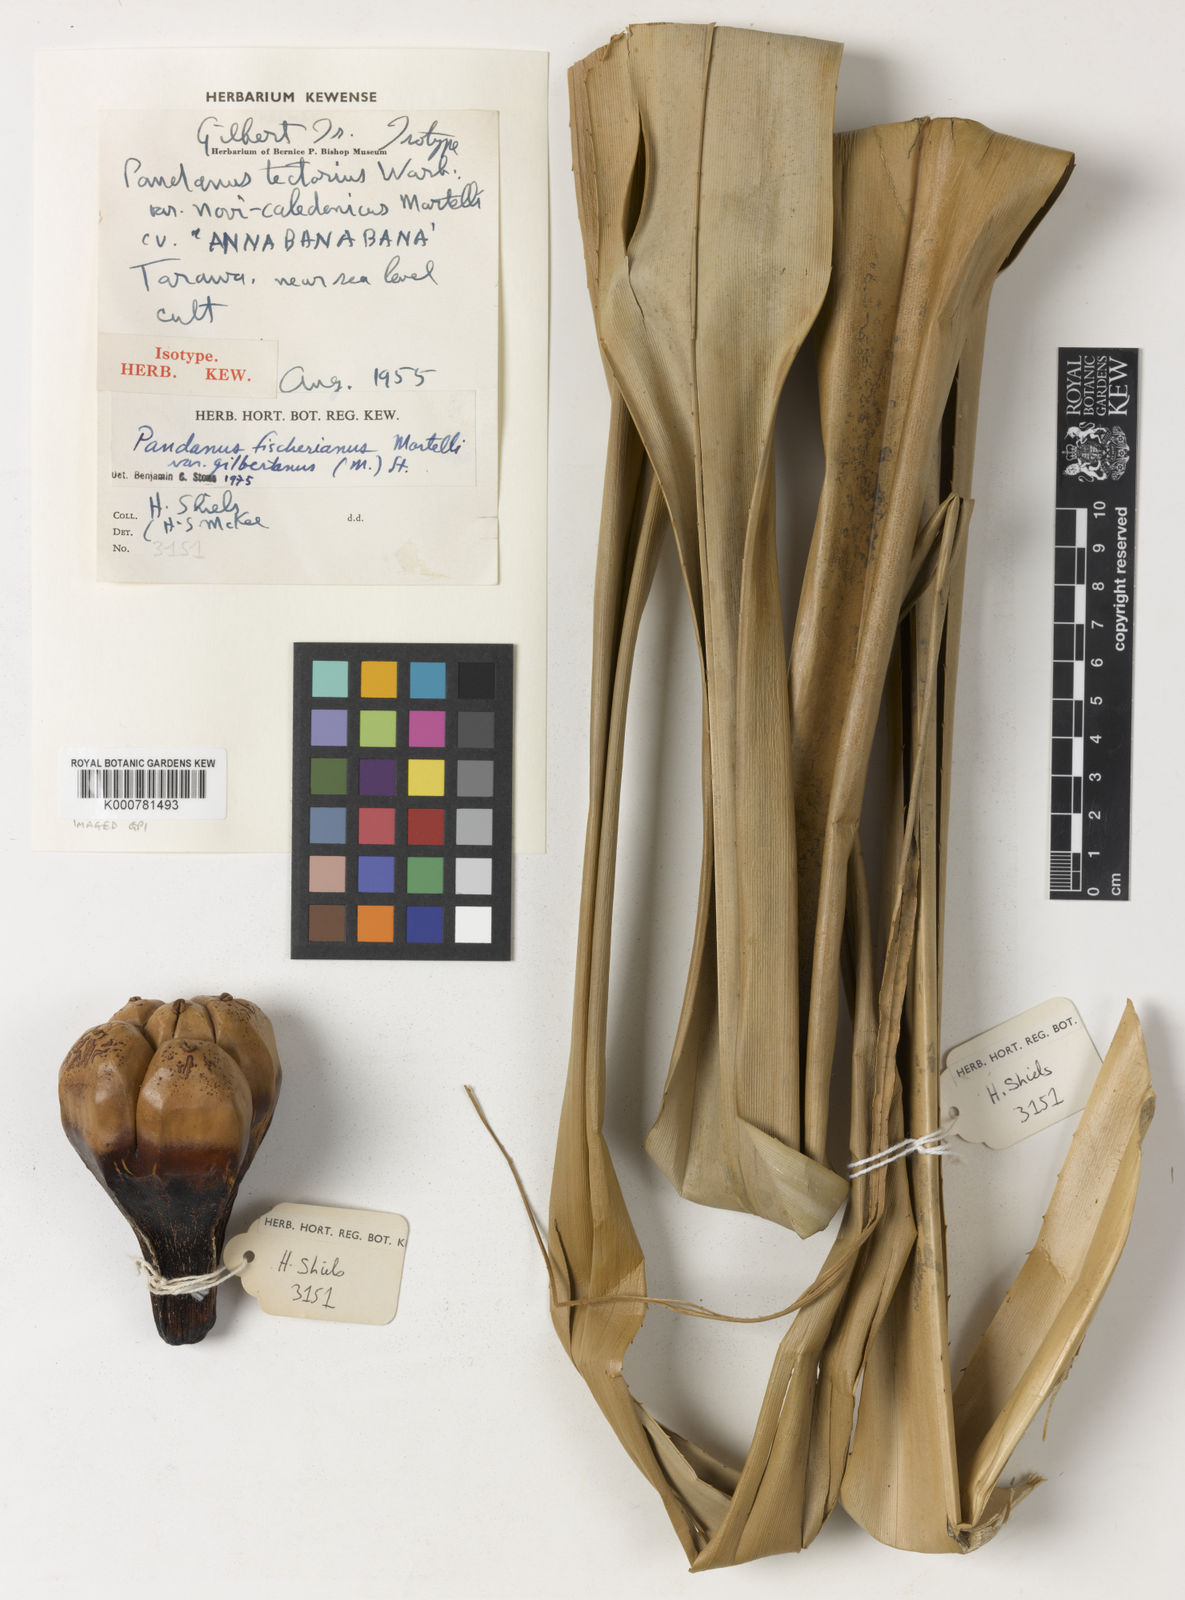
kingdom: Plantae
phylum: Tracheophyta
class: Liliopsida
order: Pandanales
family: Pandanaceae
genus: Pandanus
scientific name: Pandanus tectorius
